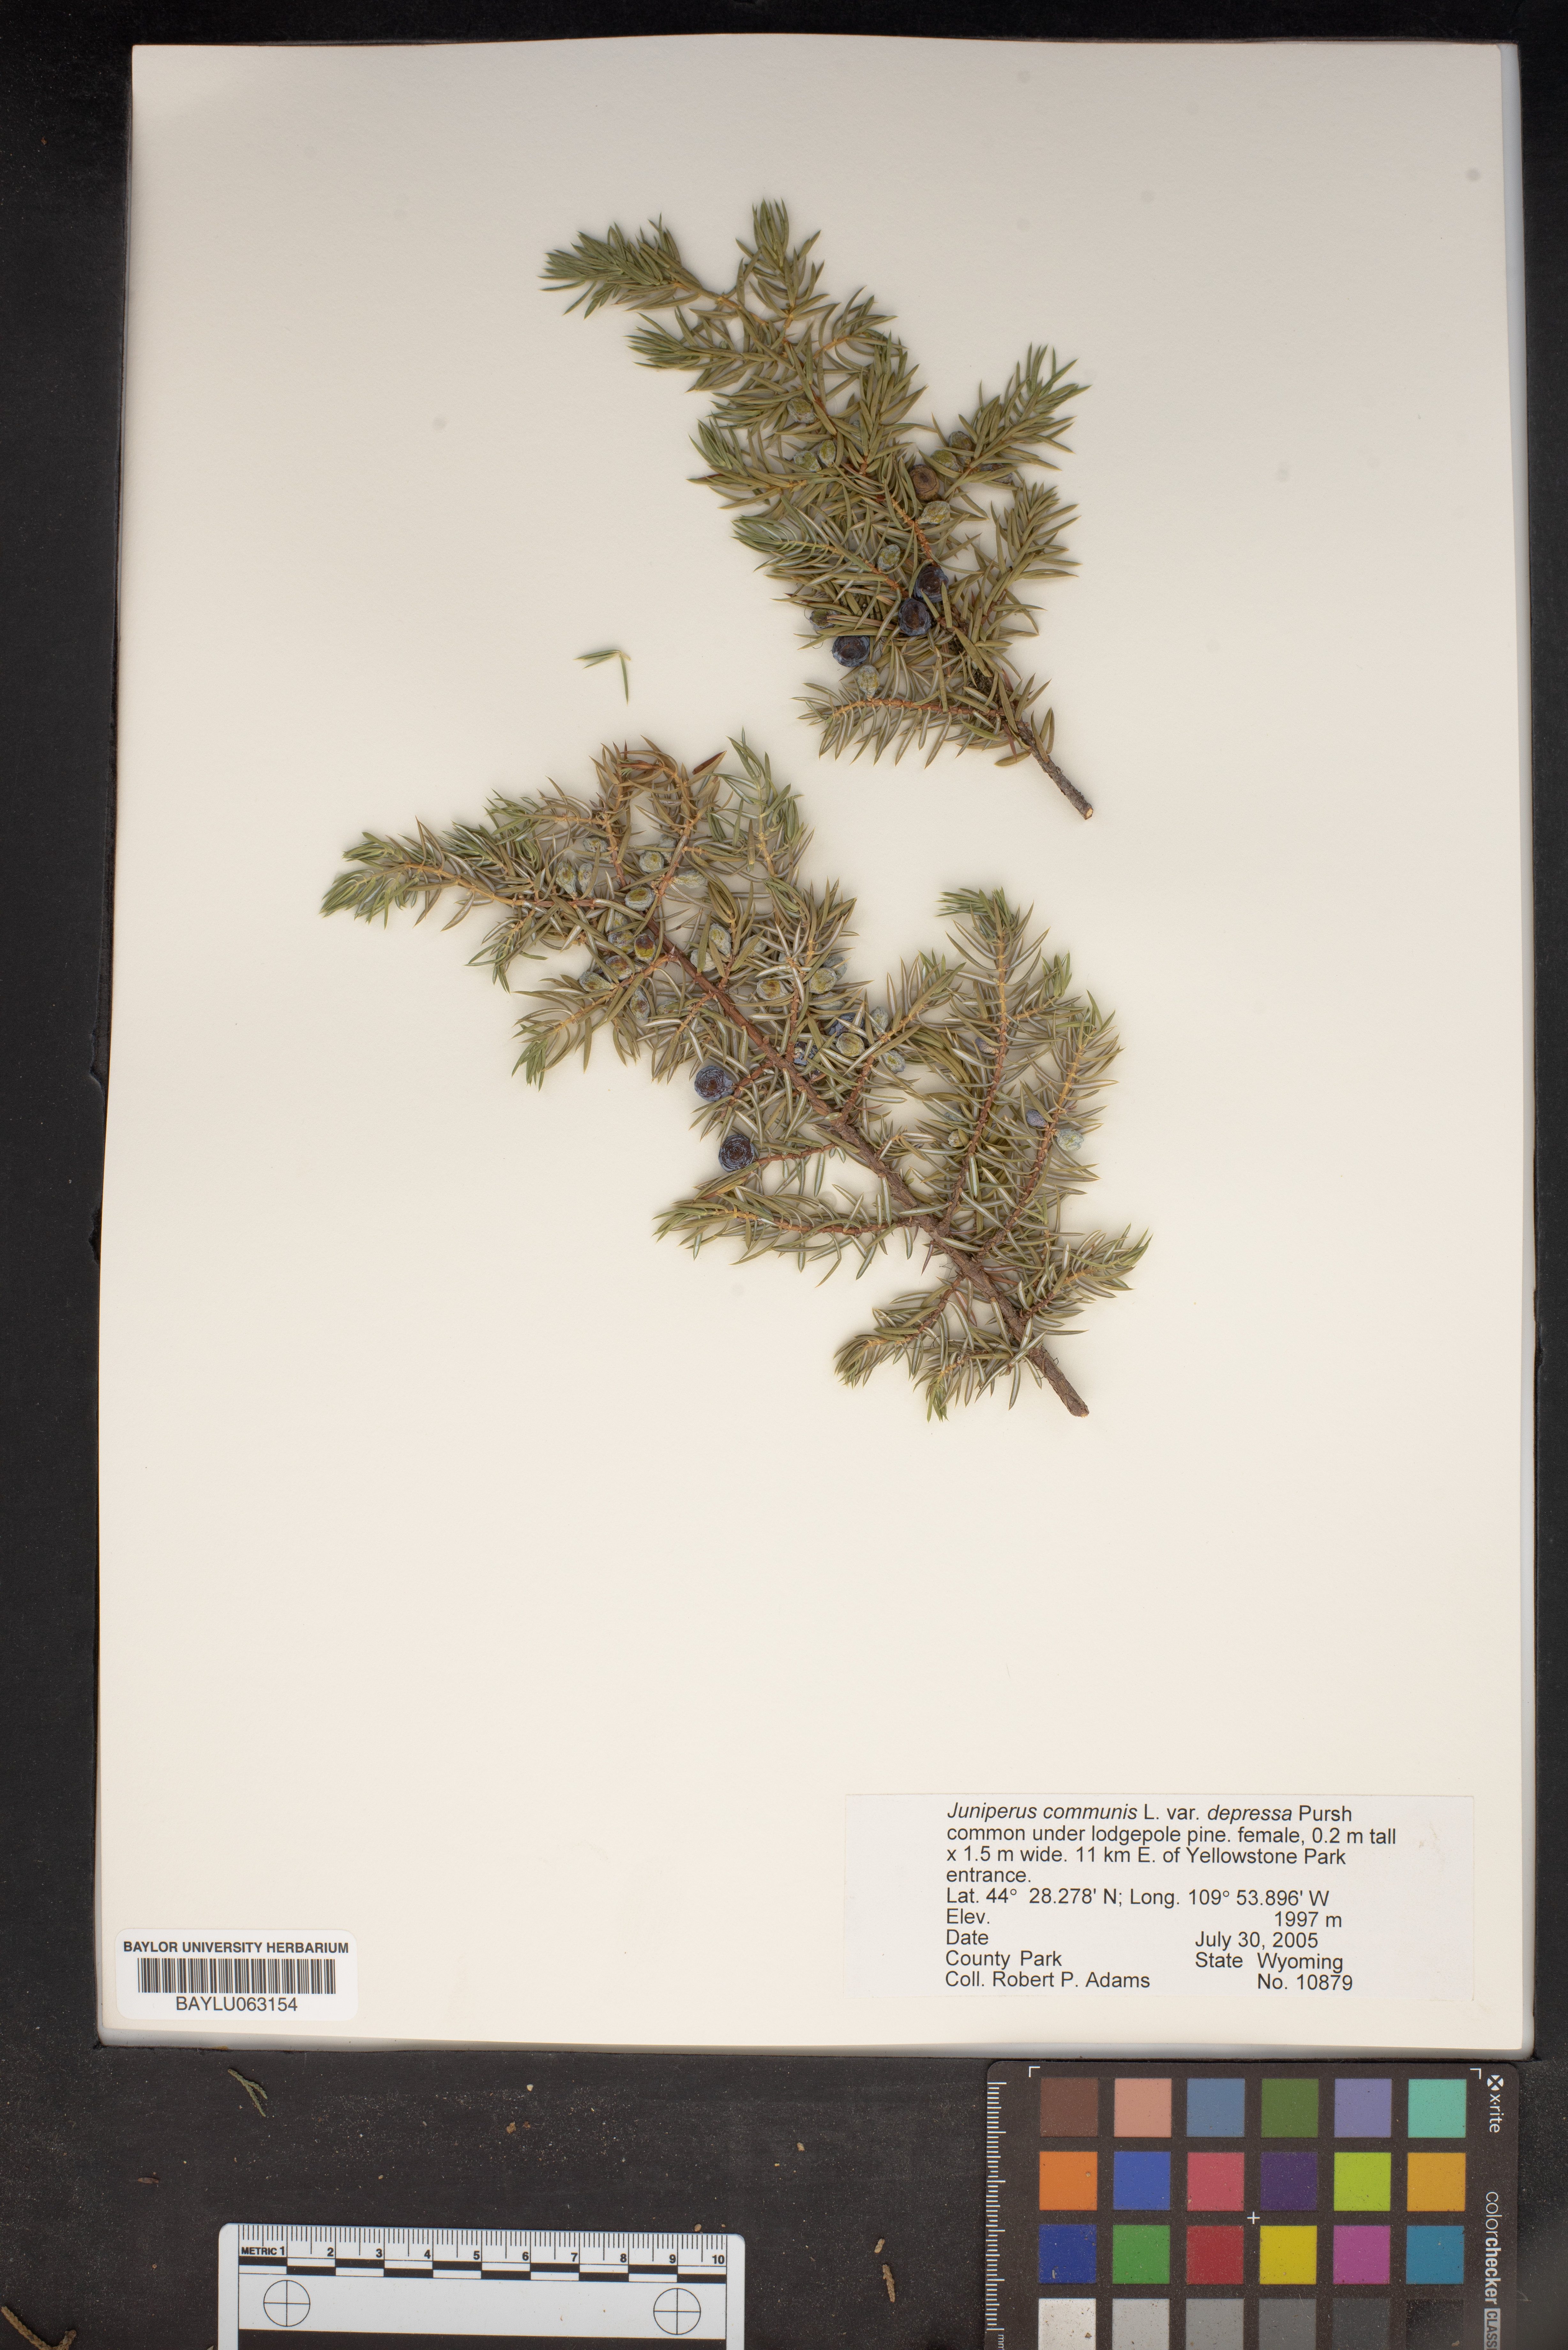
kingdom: Plantae
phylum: Tracheophyta
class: Pinopsida
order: Pinales
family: Cupressaceae
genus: Juniperus
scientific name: Juniperus communis
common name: Common juniper
